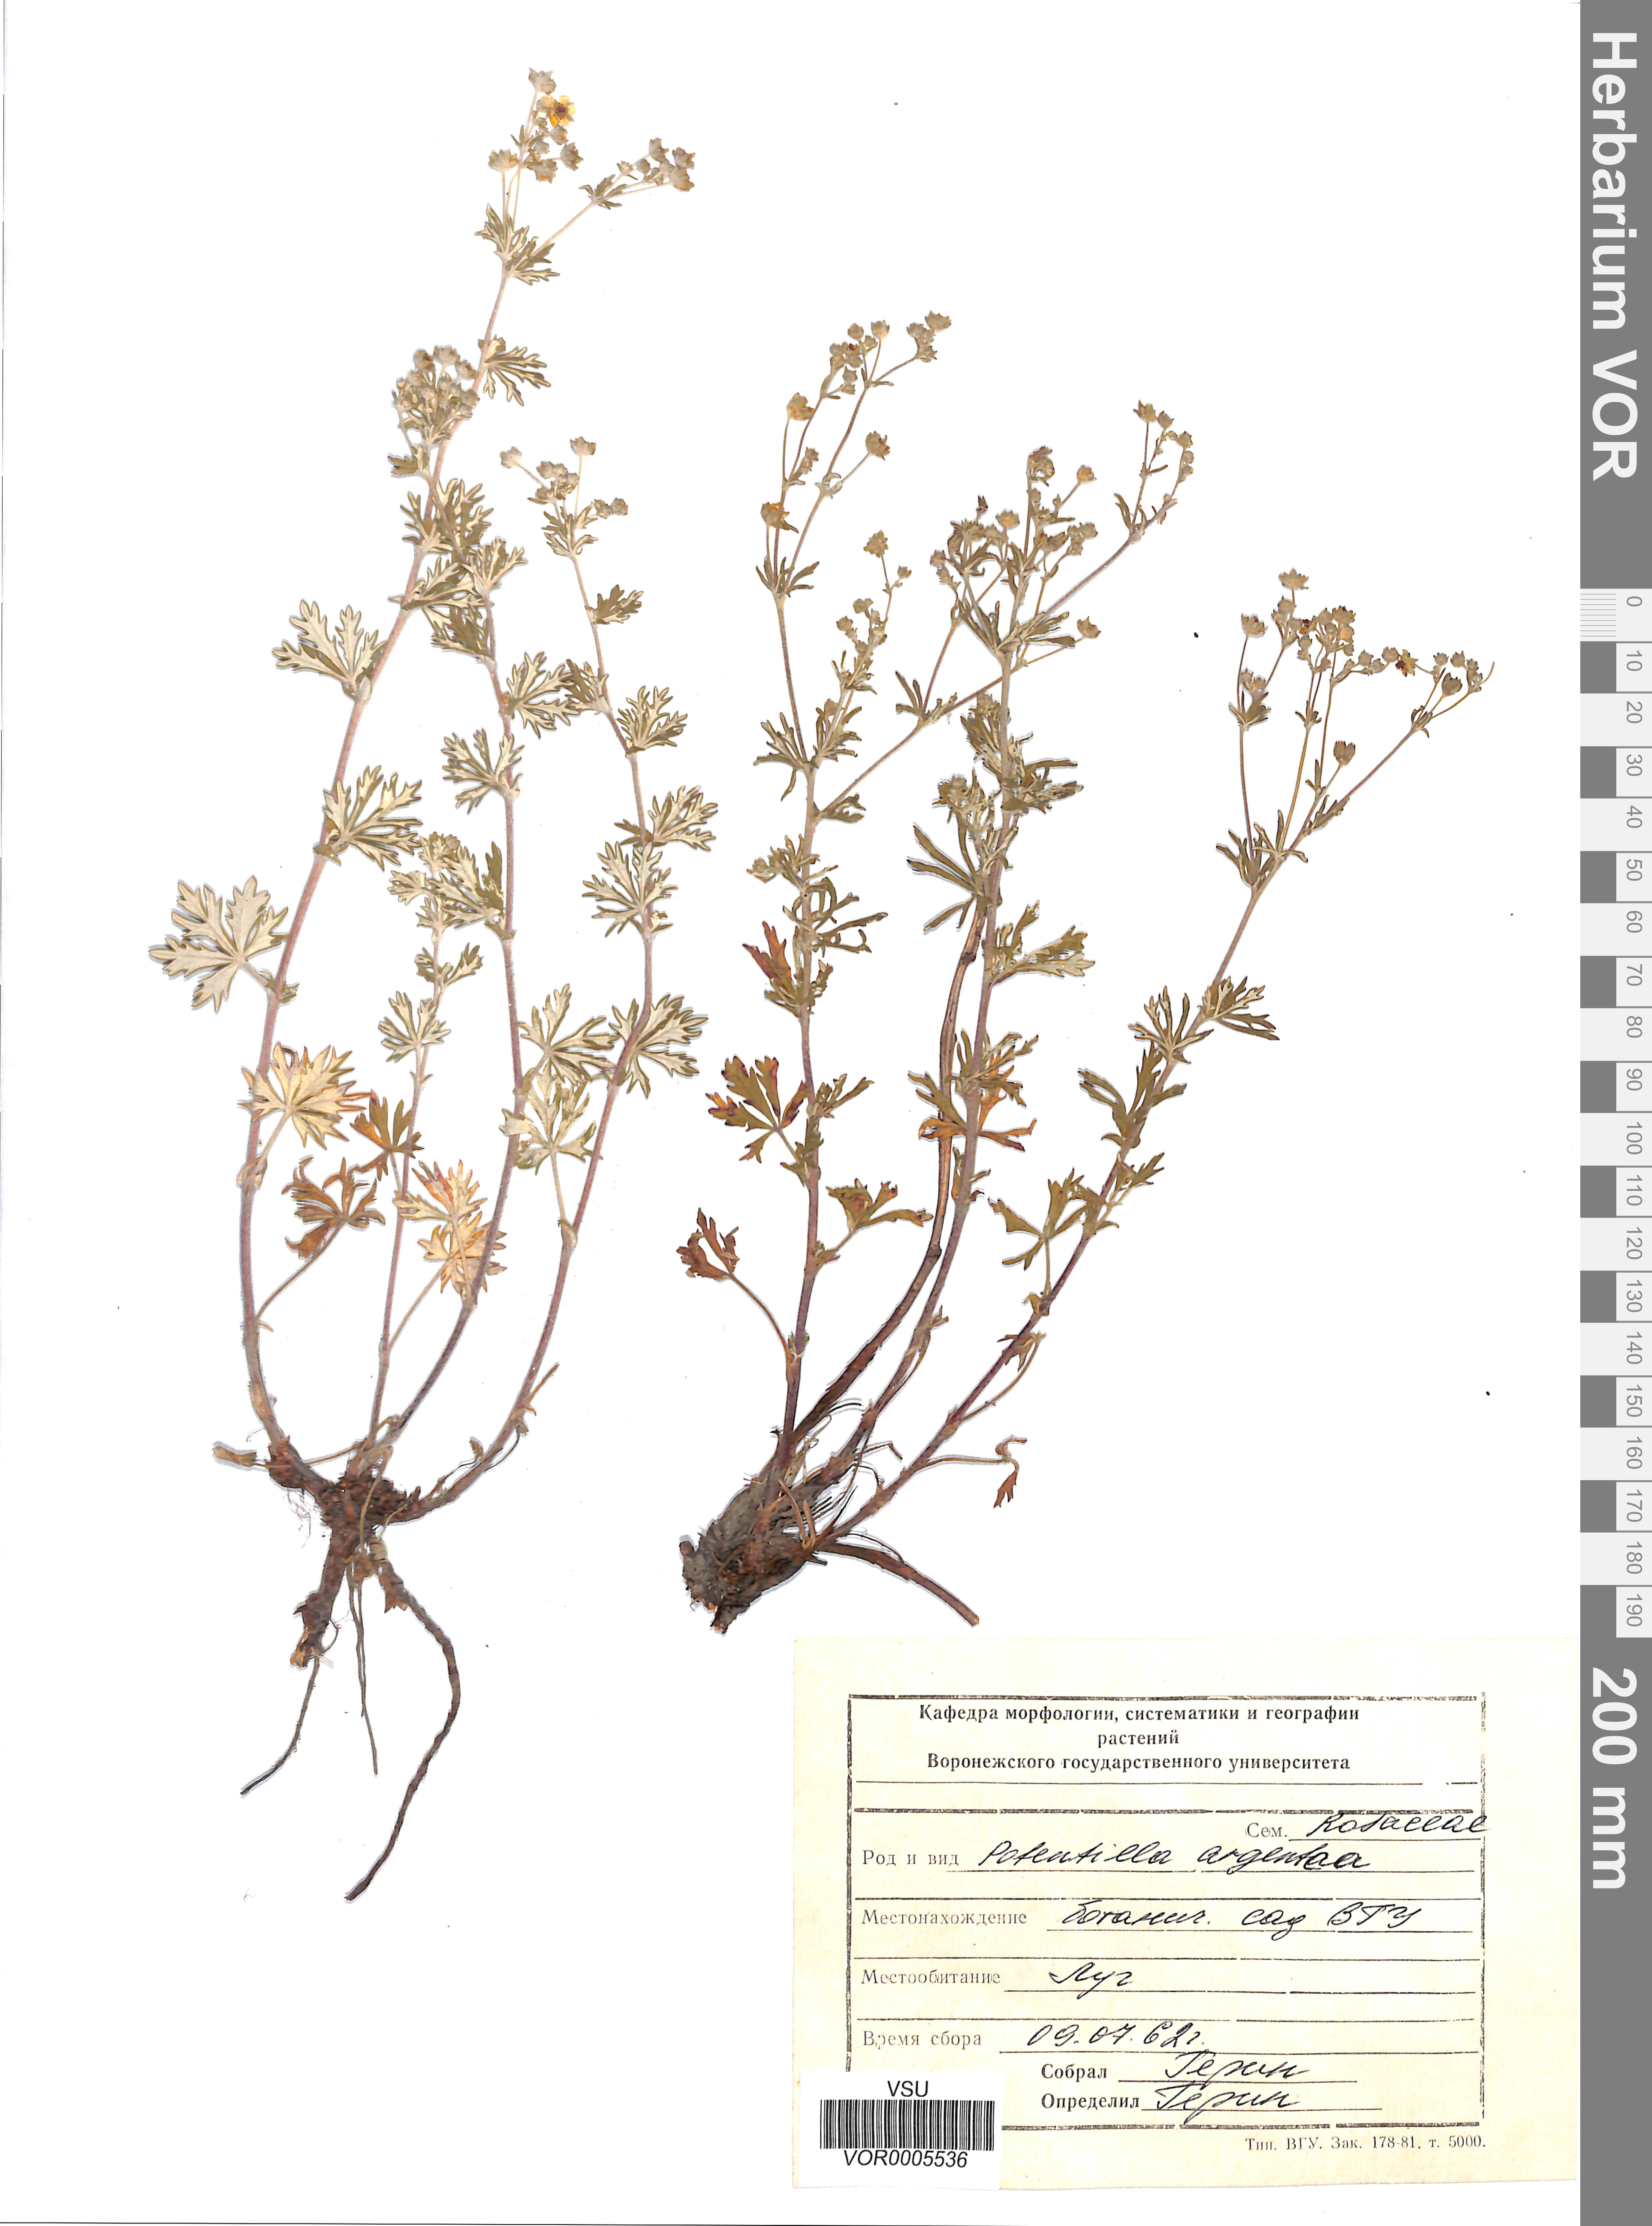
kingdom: Plantae
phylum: Tracheophyta
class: Magnoliopsida
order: Rosales
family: Rosaceae
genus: Potentilla
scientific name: Potentilla argentea
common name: Hoary cinquefoil
